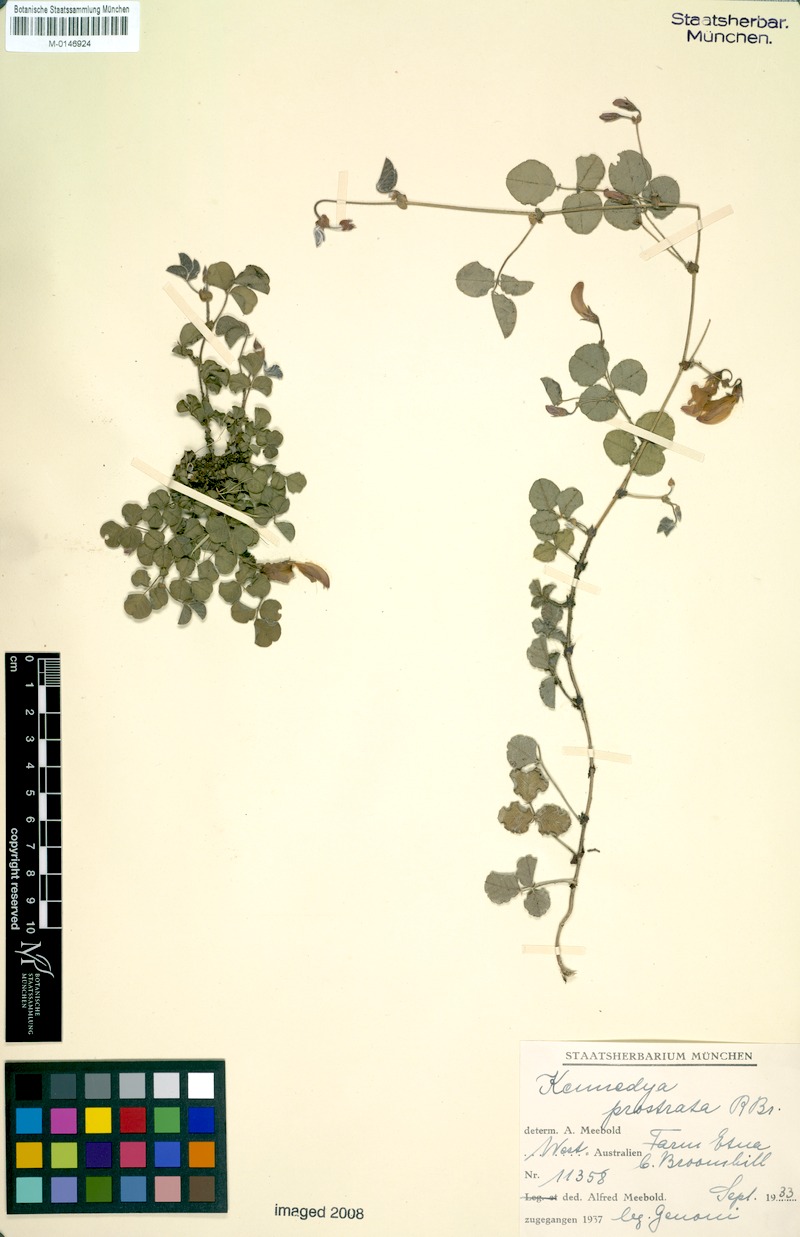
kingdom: Plantae
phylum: Tracheophyta
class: Magnoliopsida
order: Fabales
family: Fabaceae
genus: Kennedia
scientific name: Kennedia prostrata
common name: Running-postman
